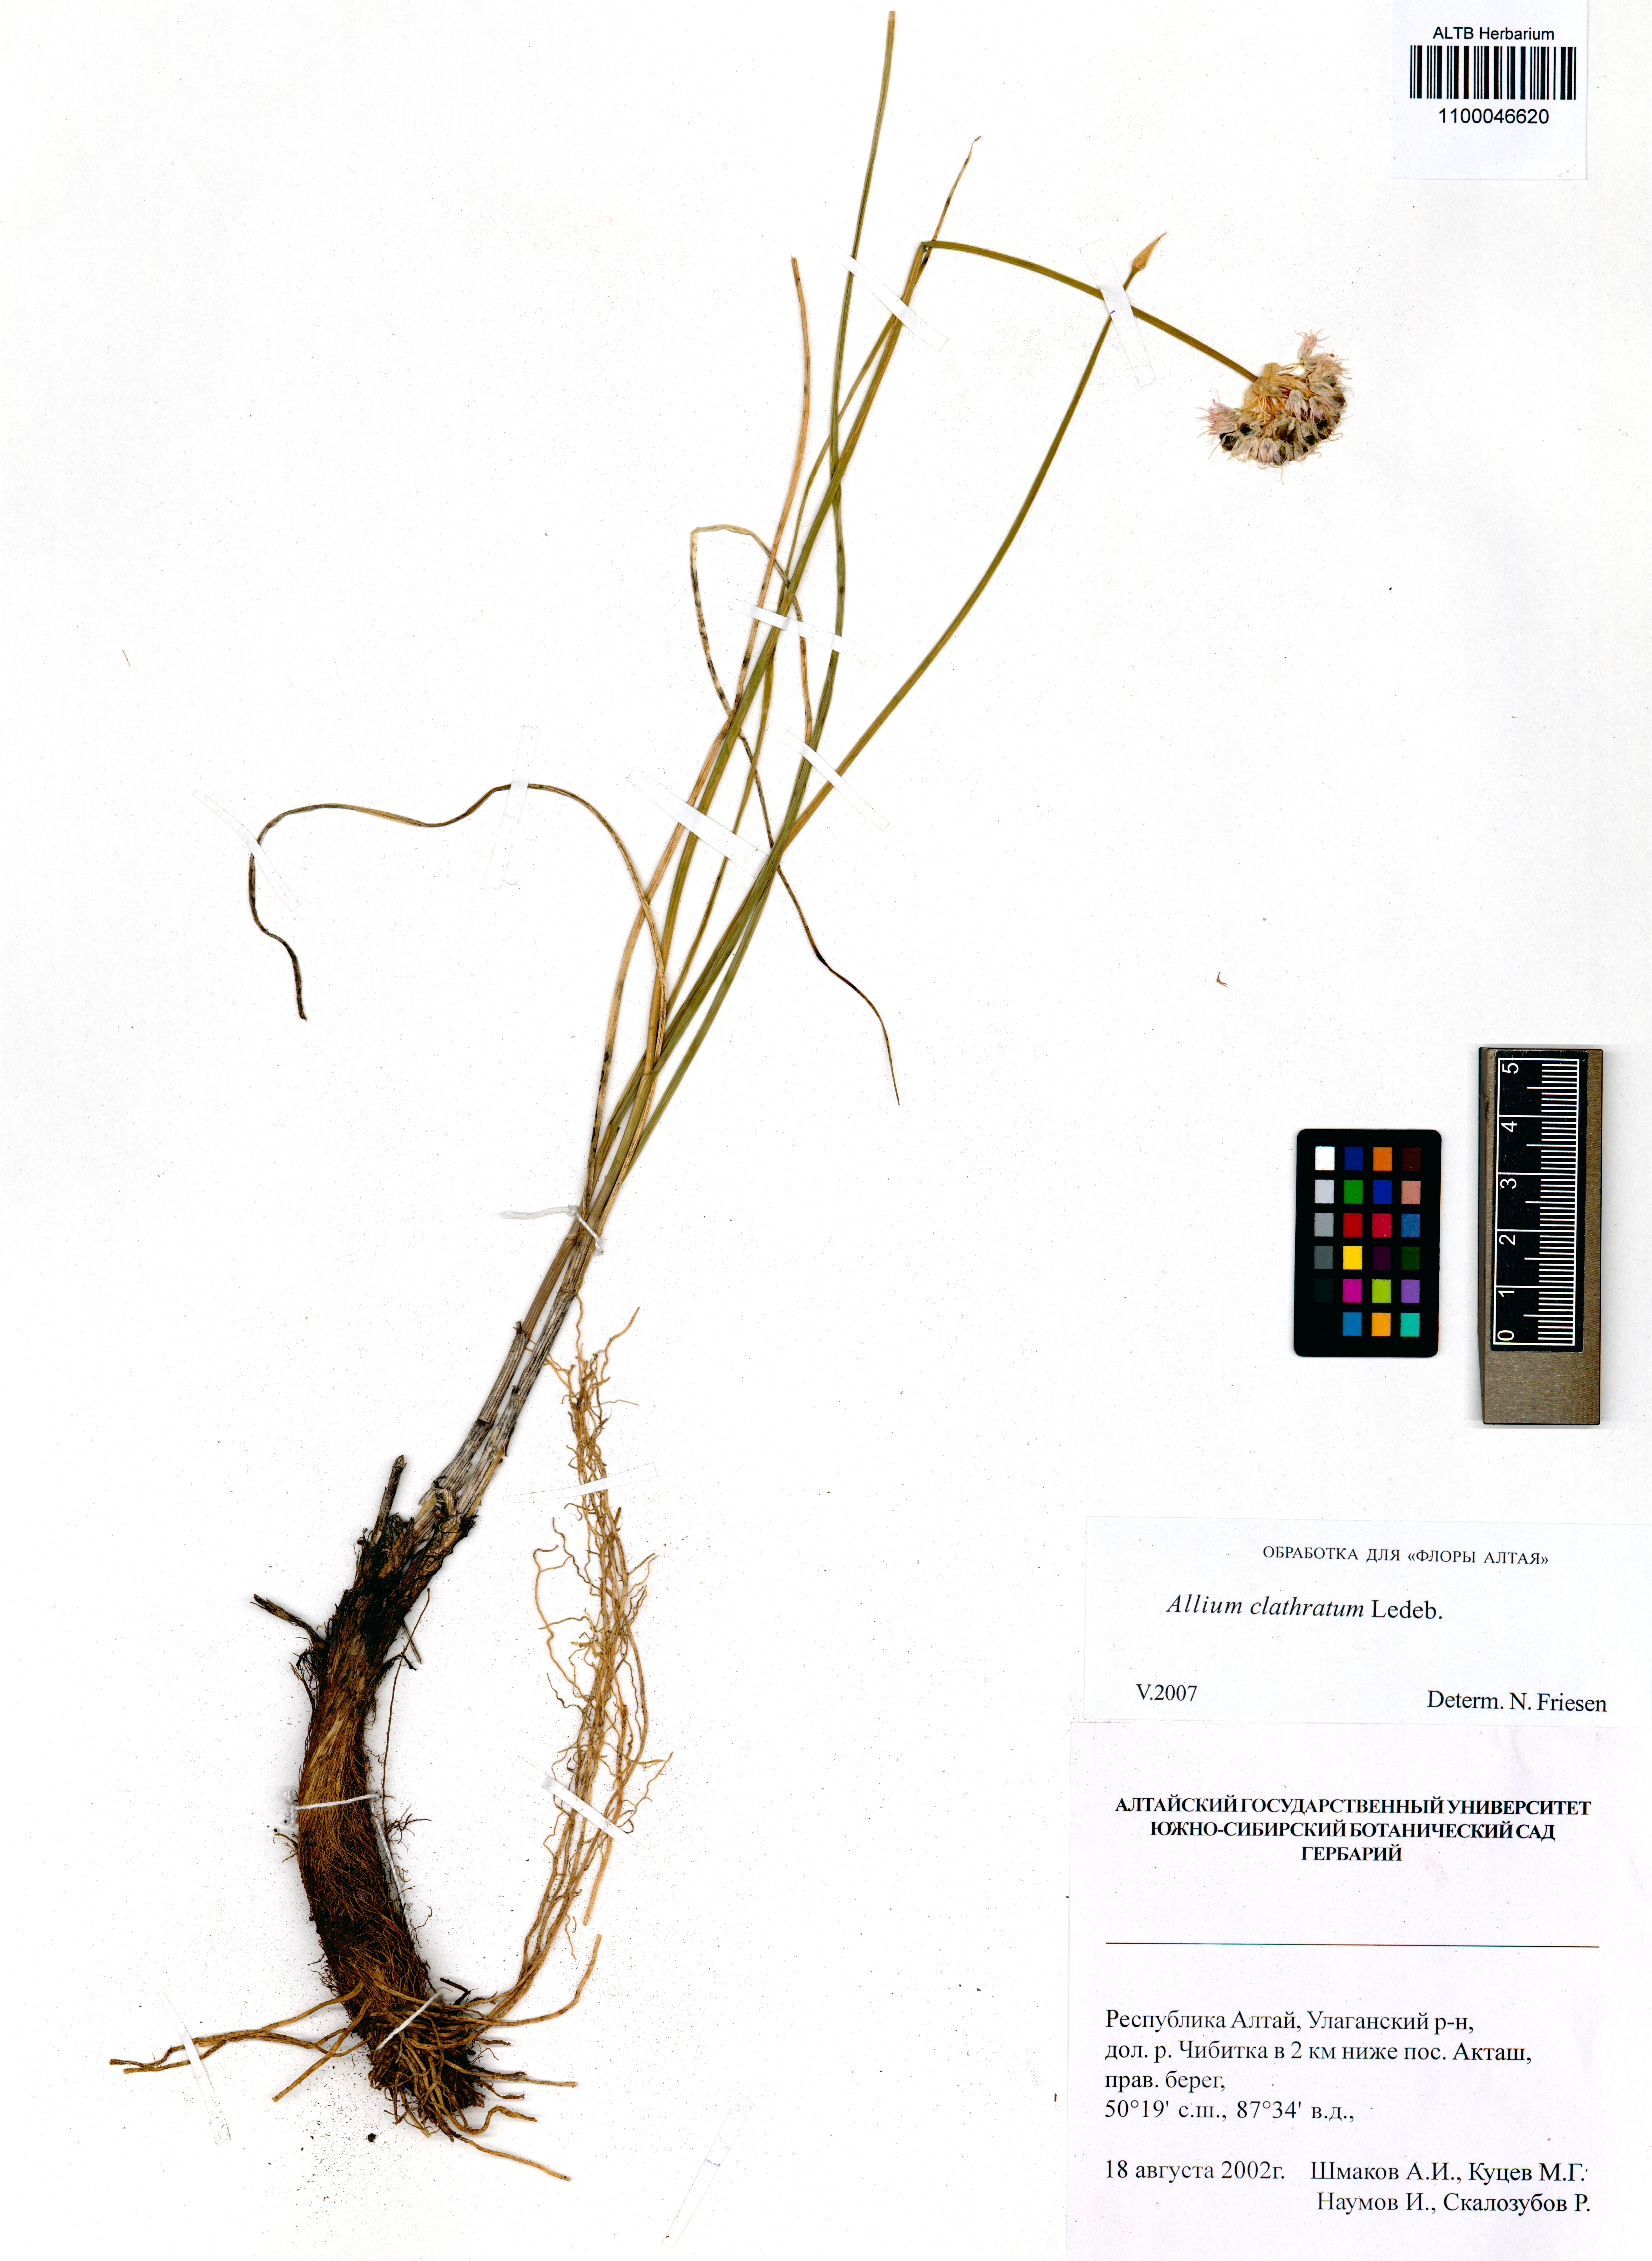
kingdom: Plantae
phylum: Tracheophyta
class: Liliopsida
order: Asparagales
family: Amaryllidaceae
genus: Allium
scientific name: Allium clathratum
